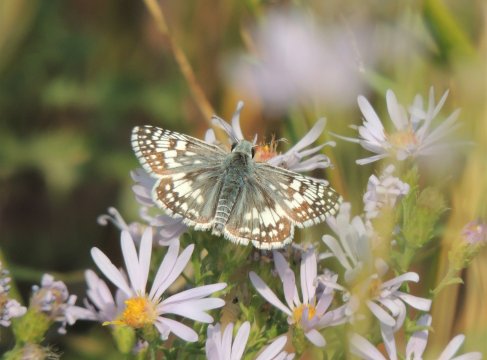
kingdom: Animalia
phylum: Arthropoda
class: Insecta
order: Lepidoptera
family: Hesperiidae
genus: Pyrgus
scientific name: Pyrgus communis
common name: Common Checkered-Skipper
